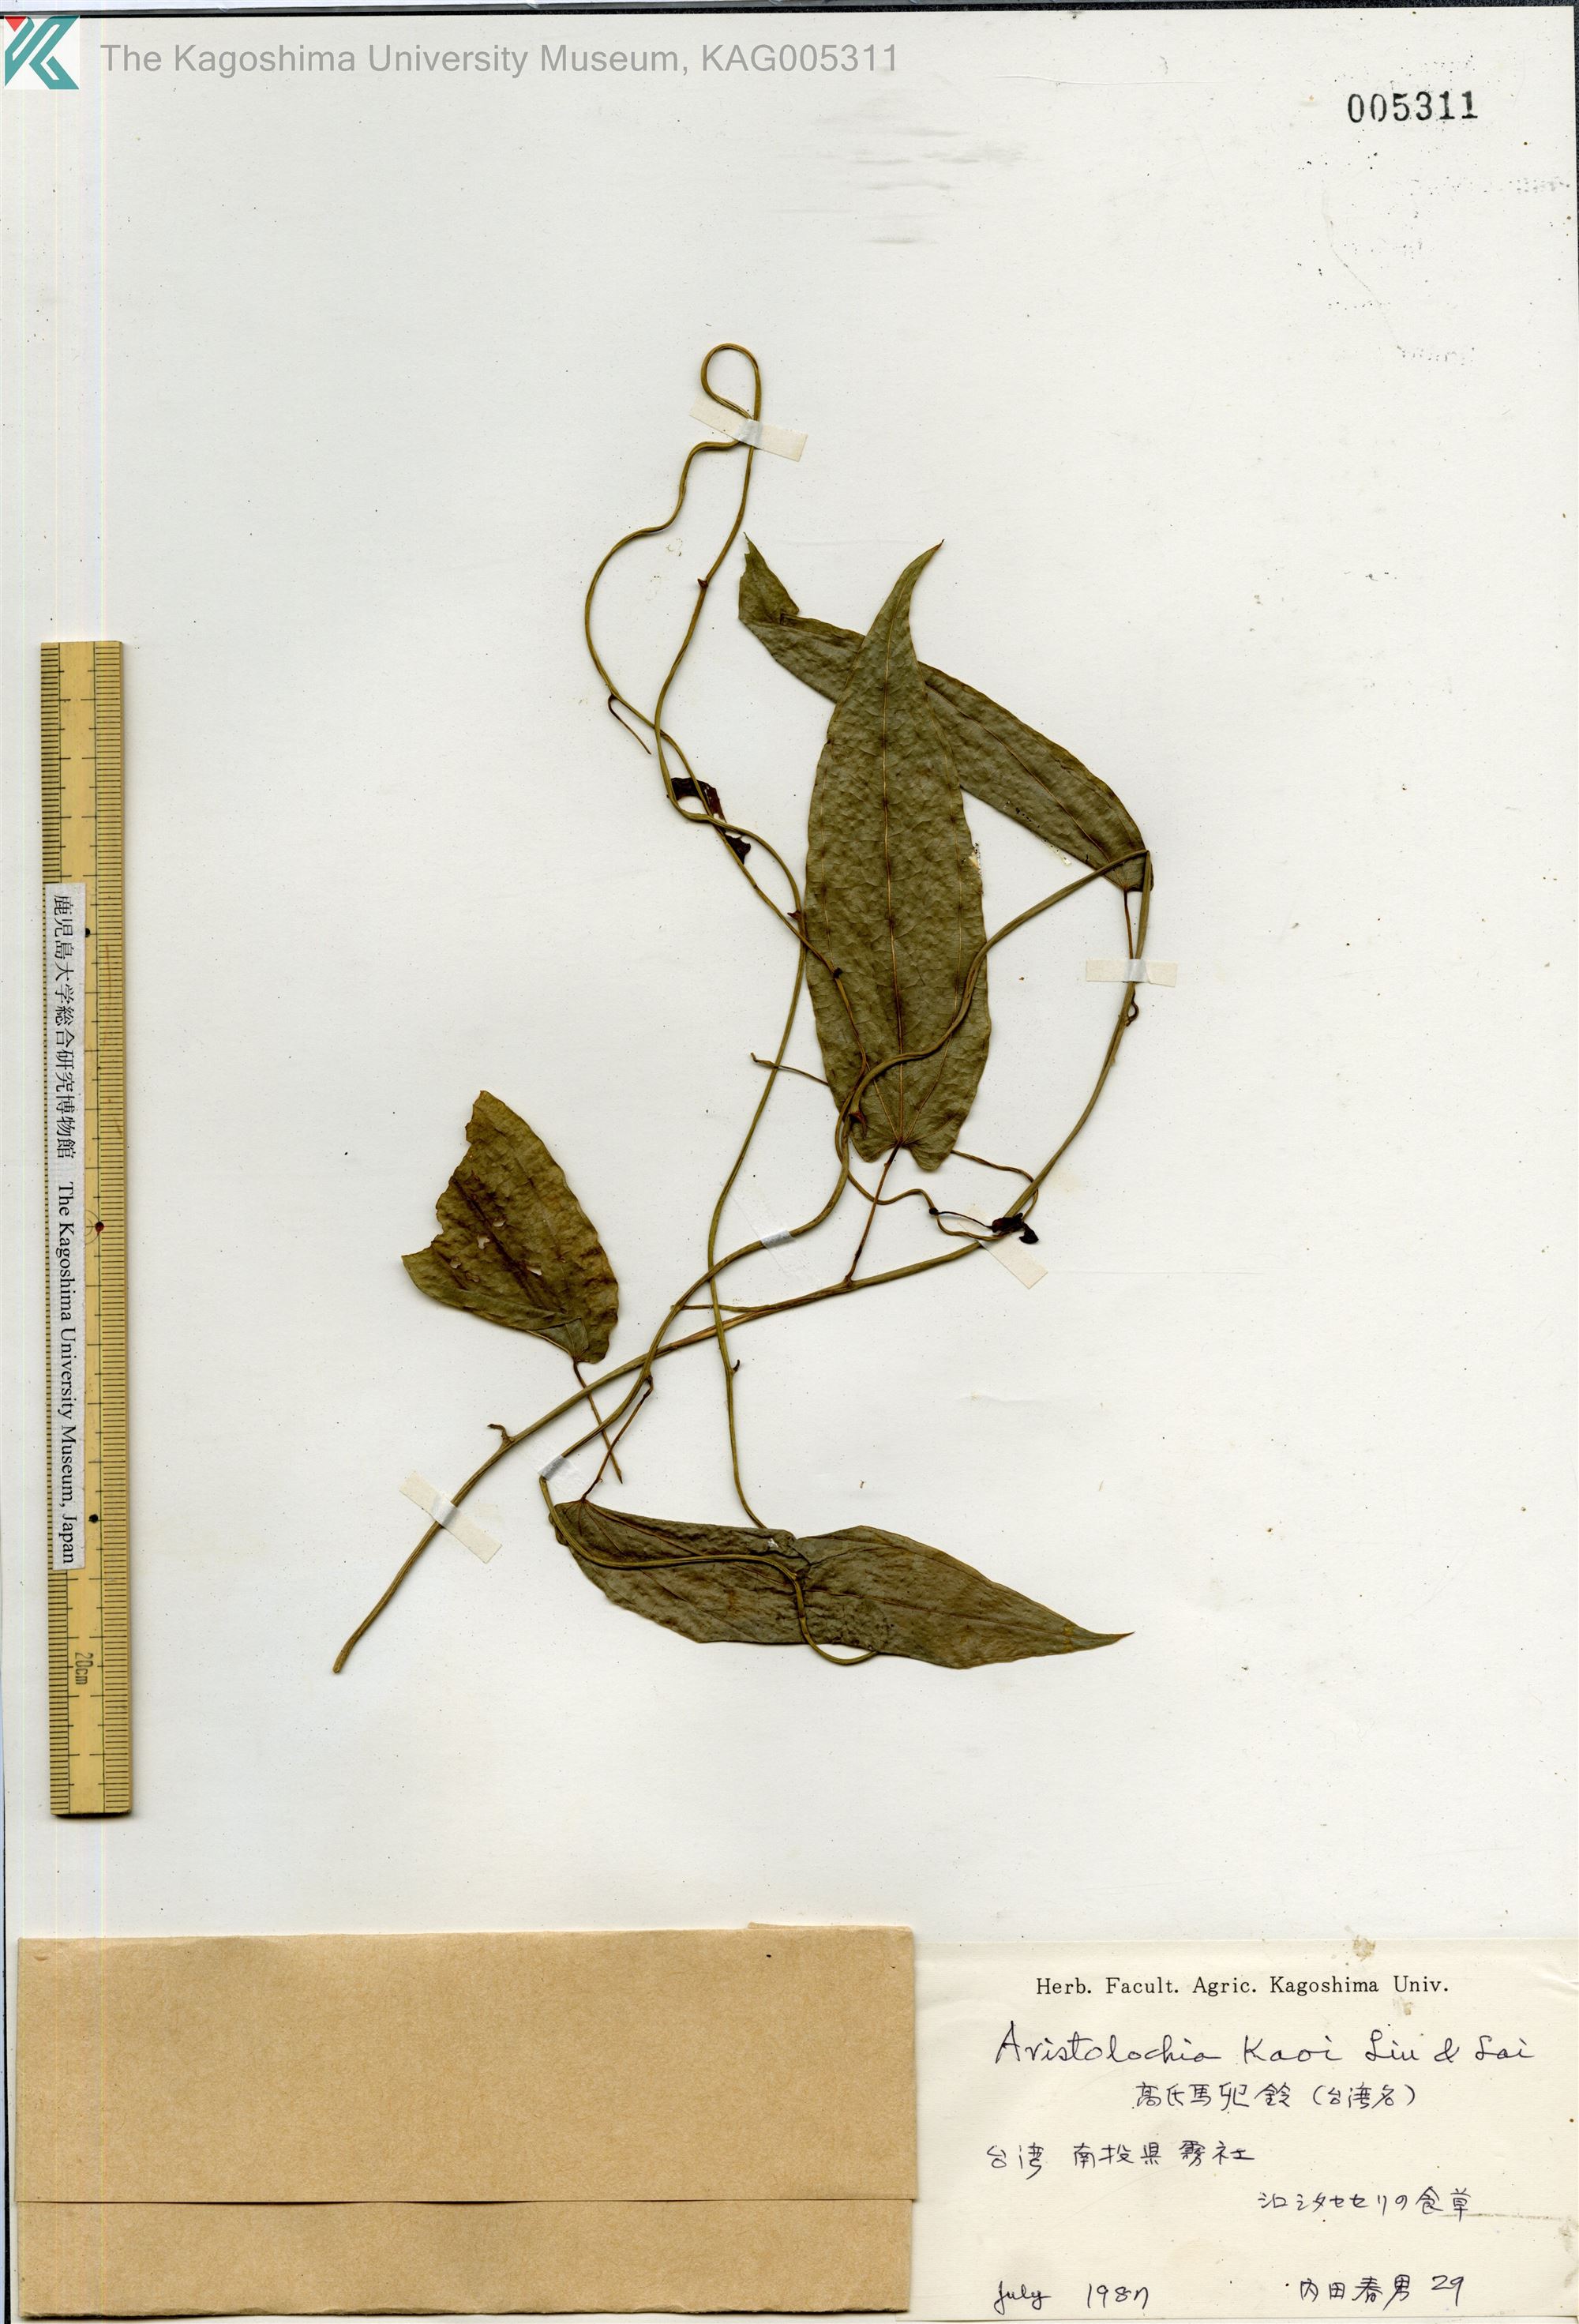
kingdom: Plantae
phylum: Tracheophyta
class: Magnoliopsida
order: Piperales
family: Aristolochiaceae
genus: Aristolochia
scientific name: Aristolochia foveolata
